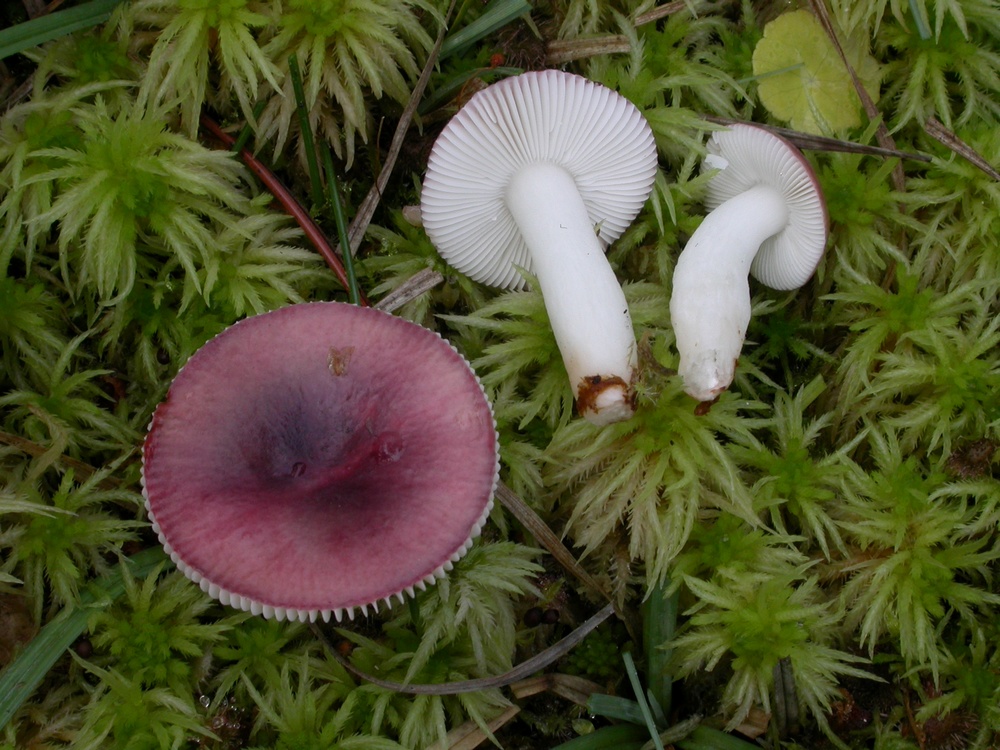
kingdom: Fungi
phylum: Basidiomycota
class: Agaricomycetes
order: Russulales
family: Russulaceae
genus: Russula
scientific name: Russula atrorubens
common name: sortrød skørhat
